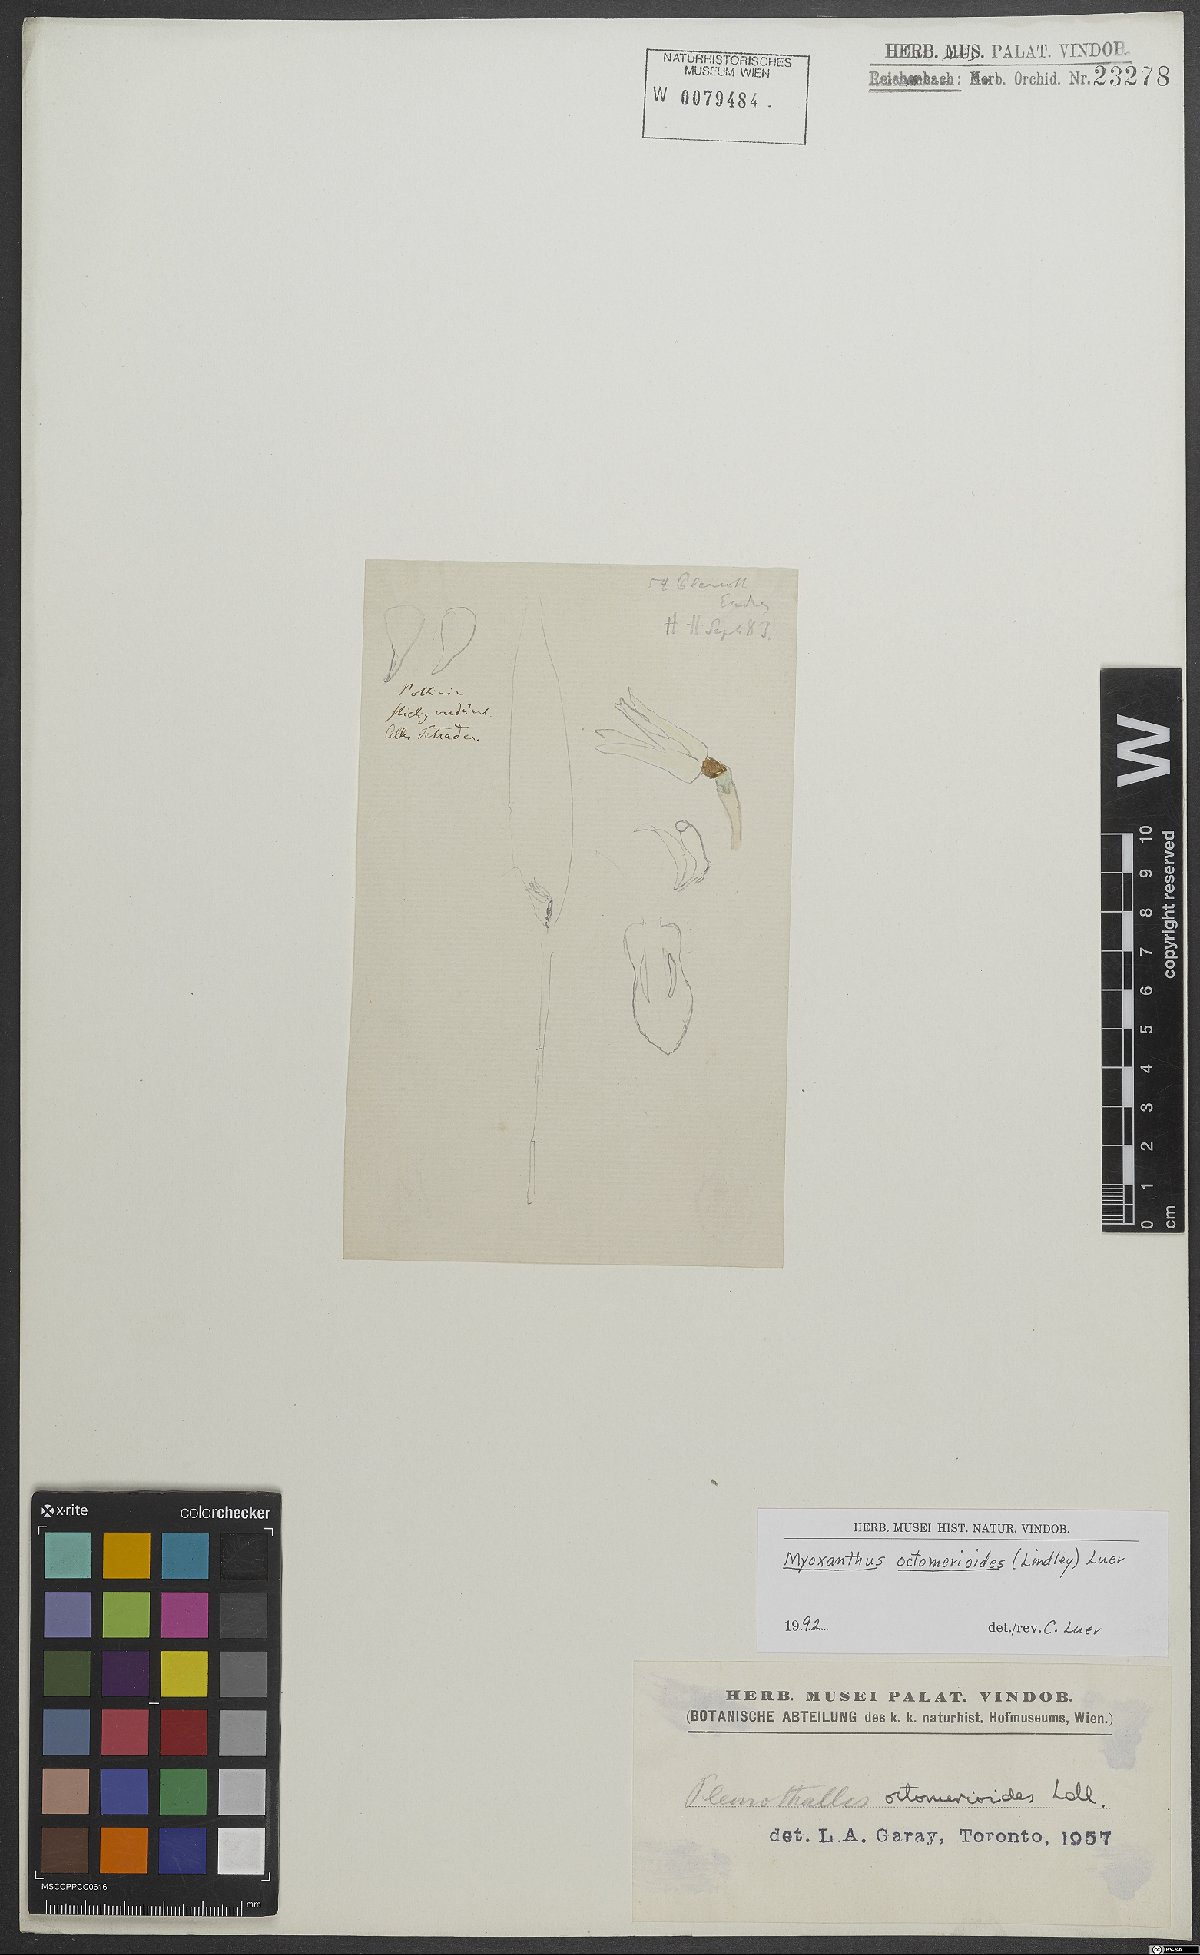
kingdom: Plantae
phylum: Tracheophyta
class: Liliopsida
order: Asparagales
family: Orchidaceae
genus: Myoxanthus
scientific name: Myoxanthus octomerioides
